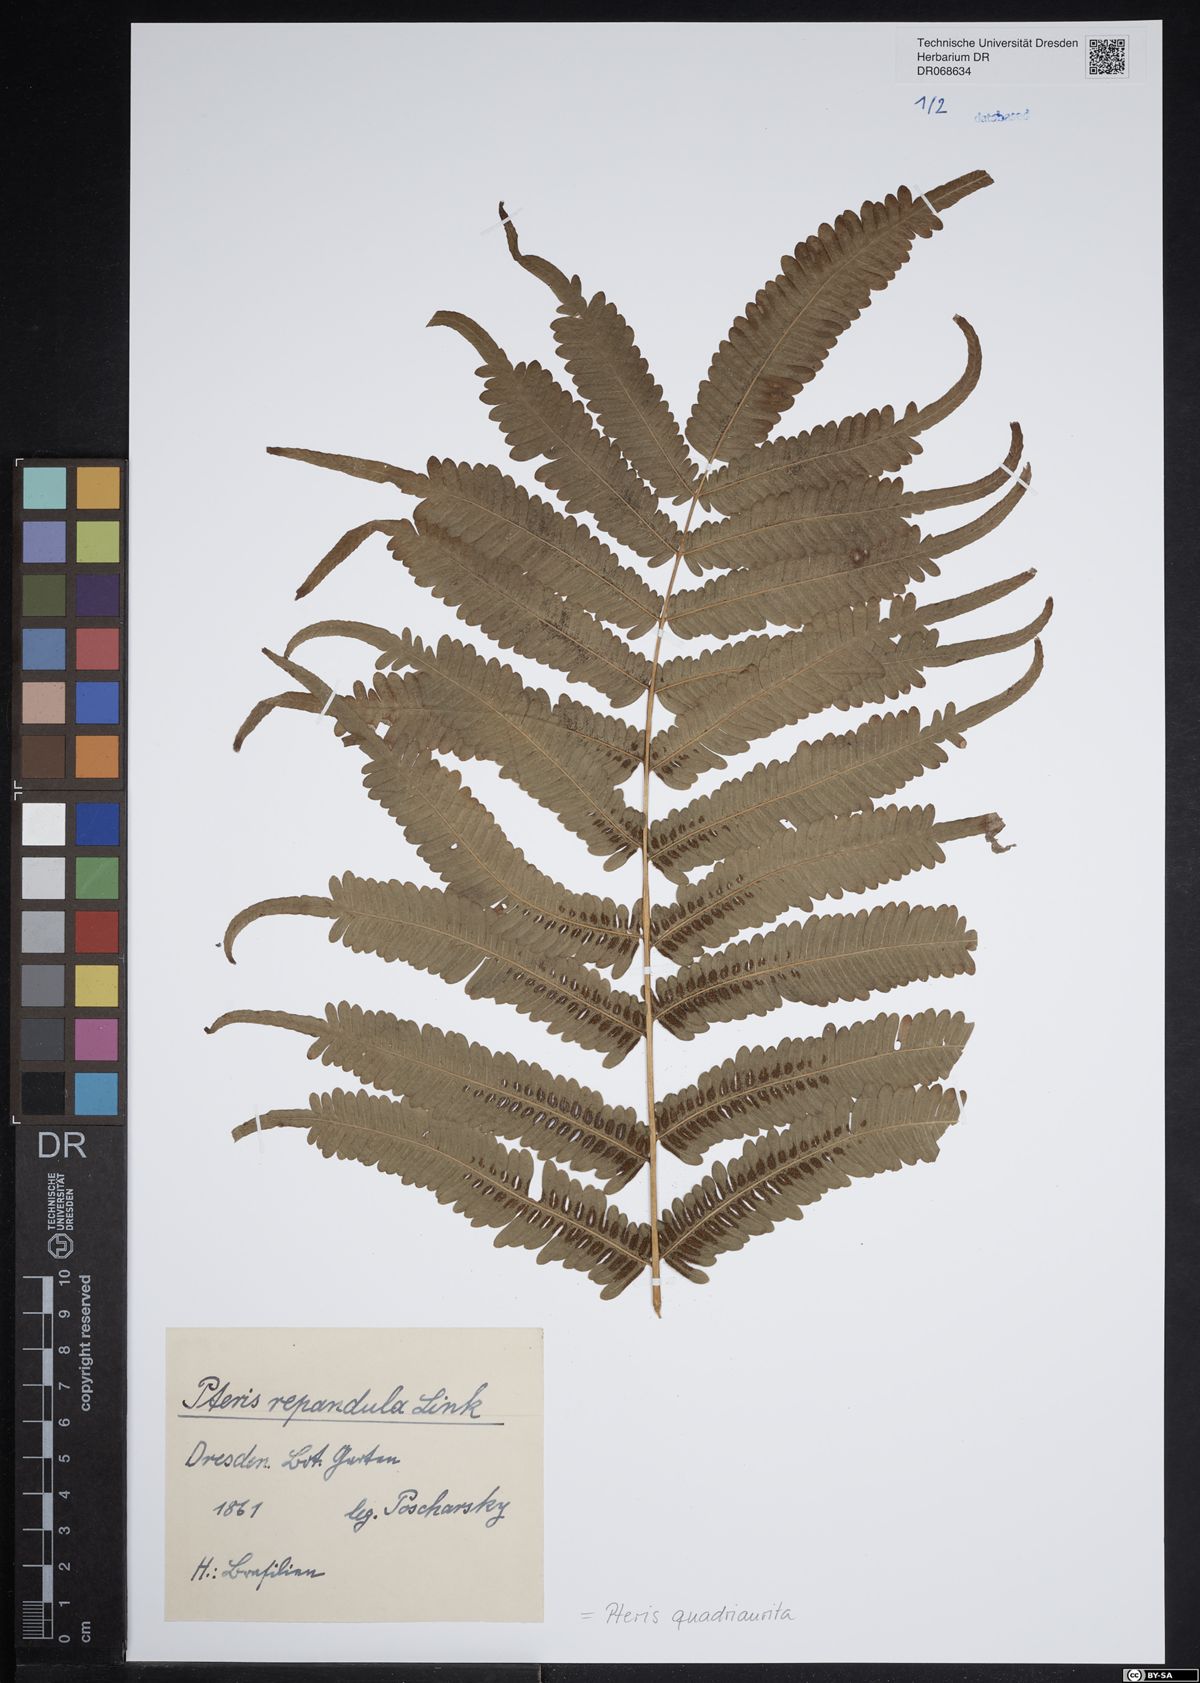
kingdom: Plantae
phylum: Tracheophyta
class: Polypodiopsida
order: Polypodiales
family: Pteridaceae
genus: Pteris
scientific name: Pteris quadriaurita
